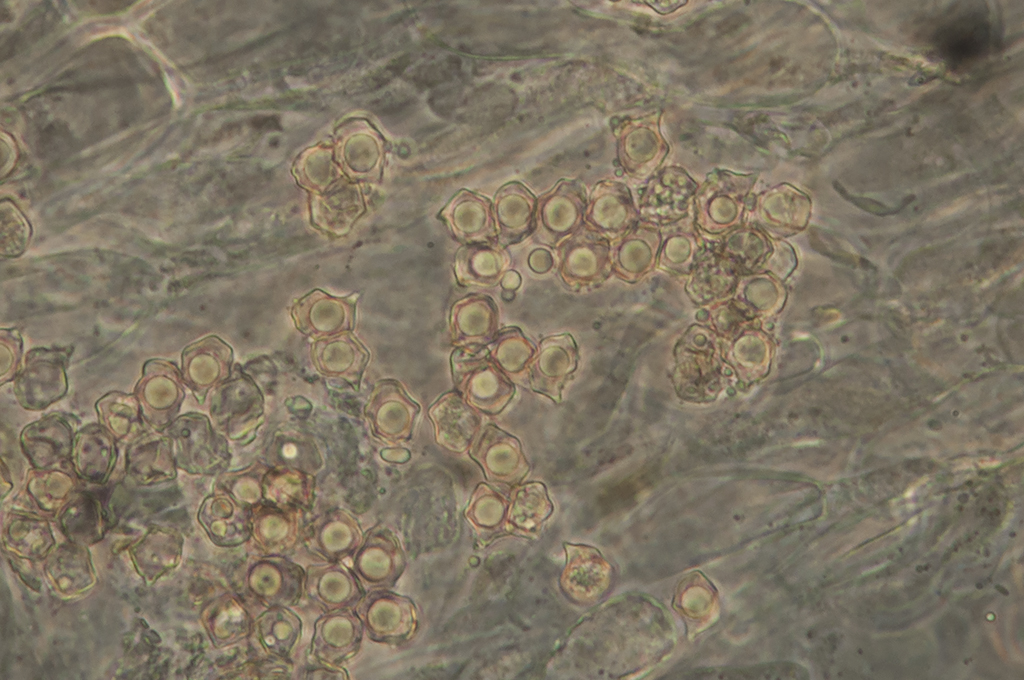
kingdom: Fungi
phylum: Basidiomycota
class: Agaricomycetes
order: Agaricales
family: Entolomataceae
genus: Entoloma
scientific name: Entoloma bryorum
